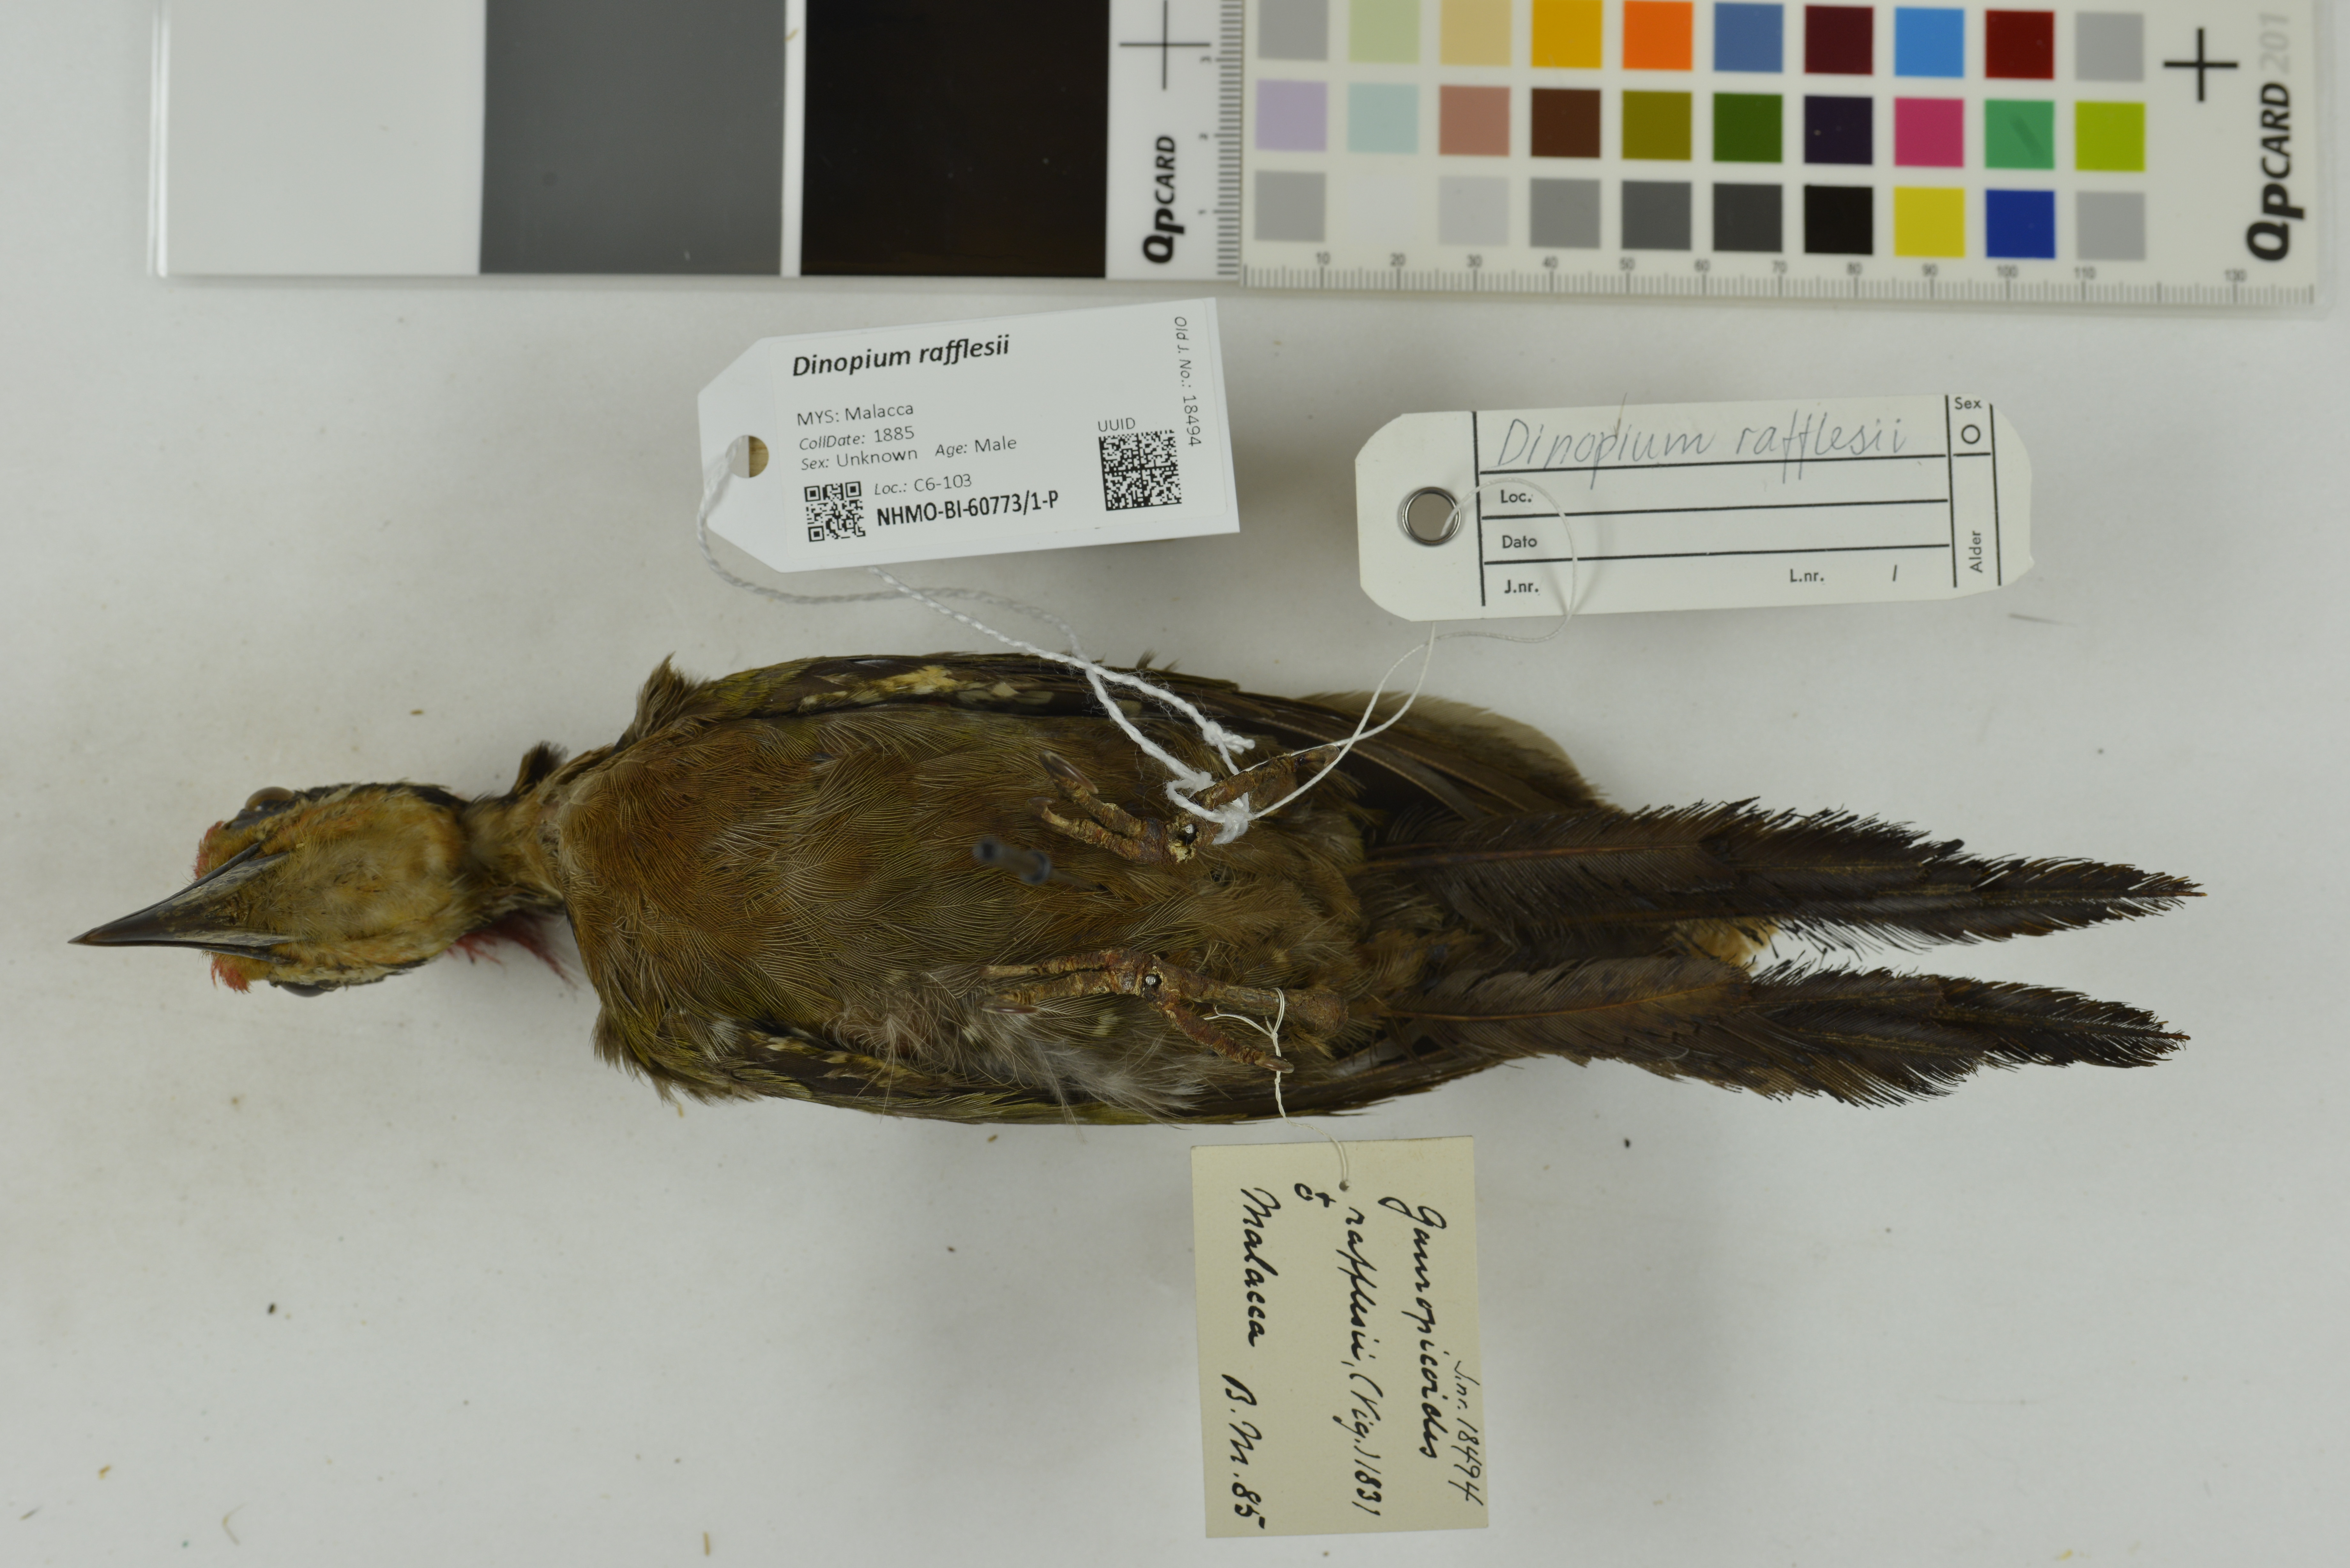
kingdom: Animalia
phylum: Chordata
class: Aves
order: Piciformes
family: Picidae
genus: Gecinulus
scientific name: Gecinulus rafflesii
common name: Olive-backed woodpecker
